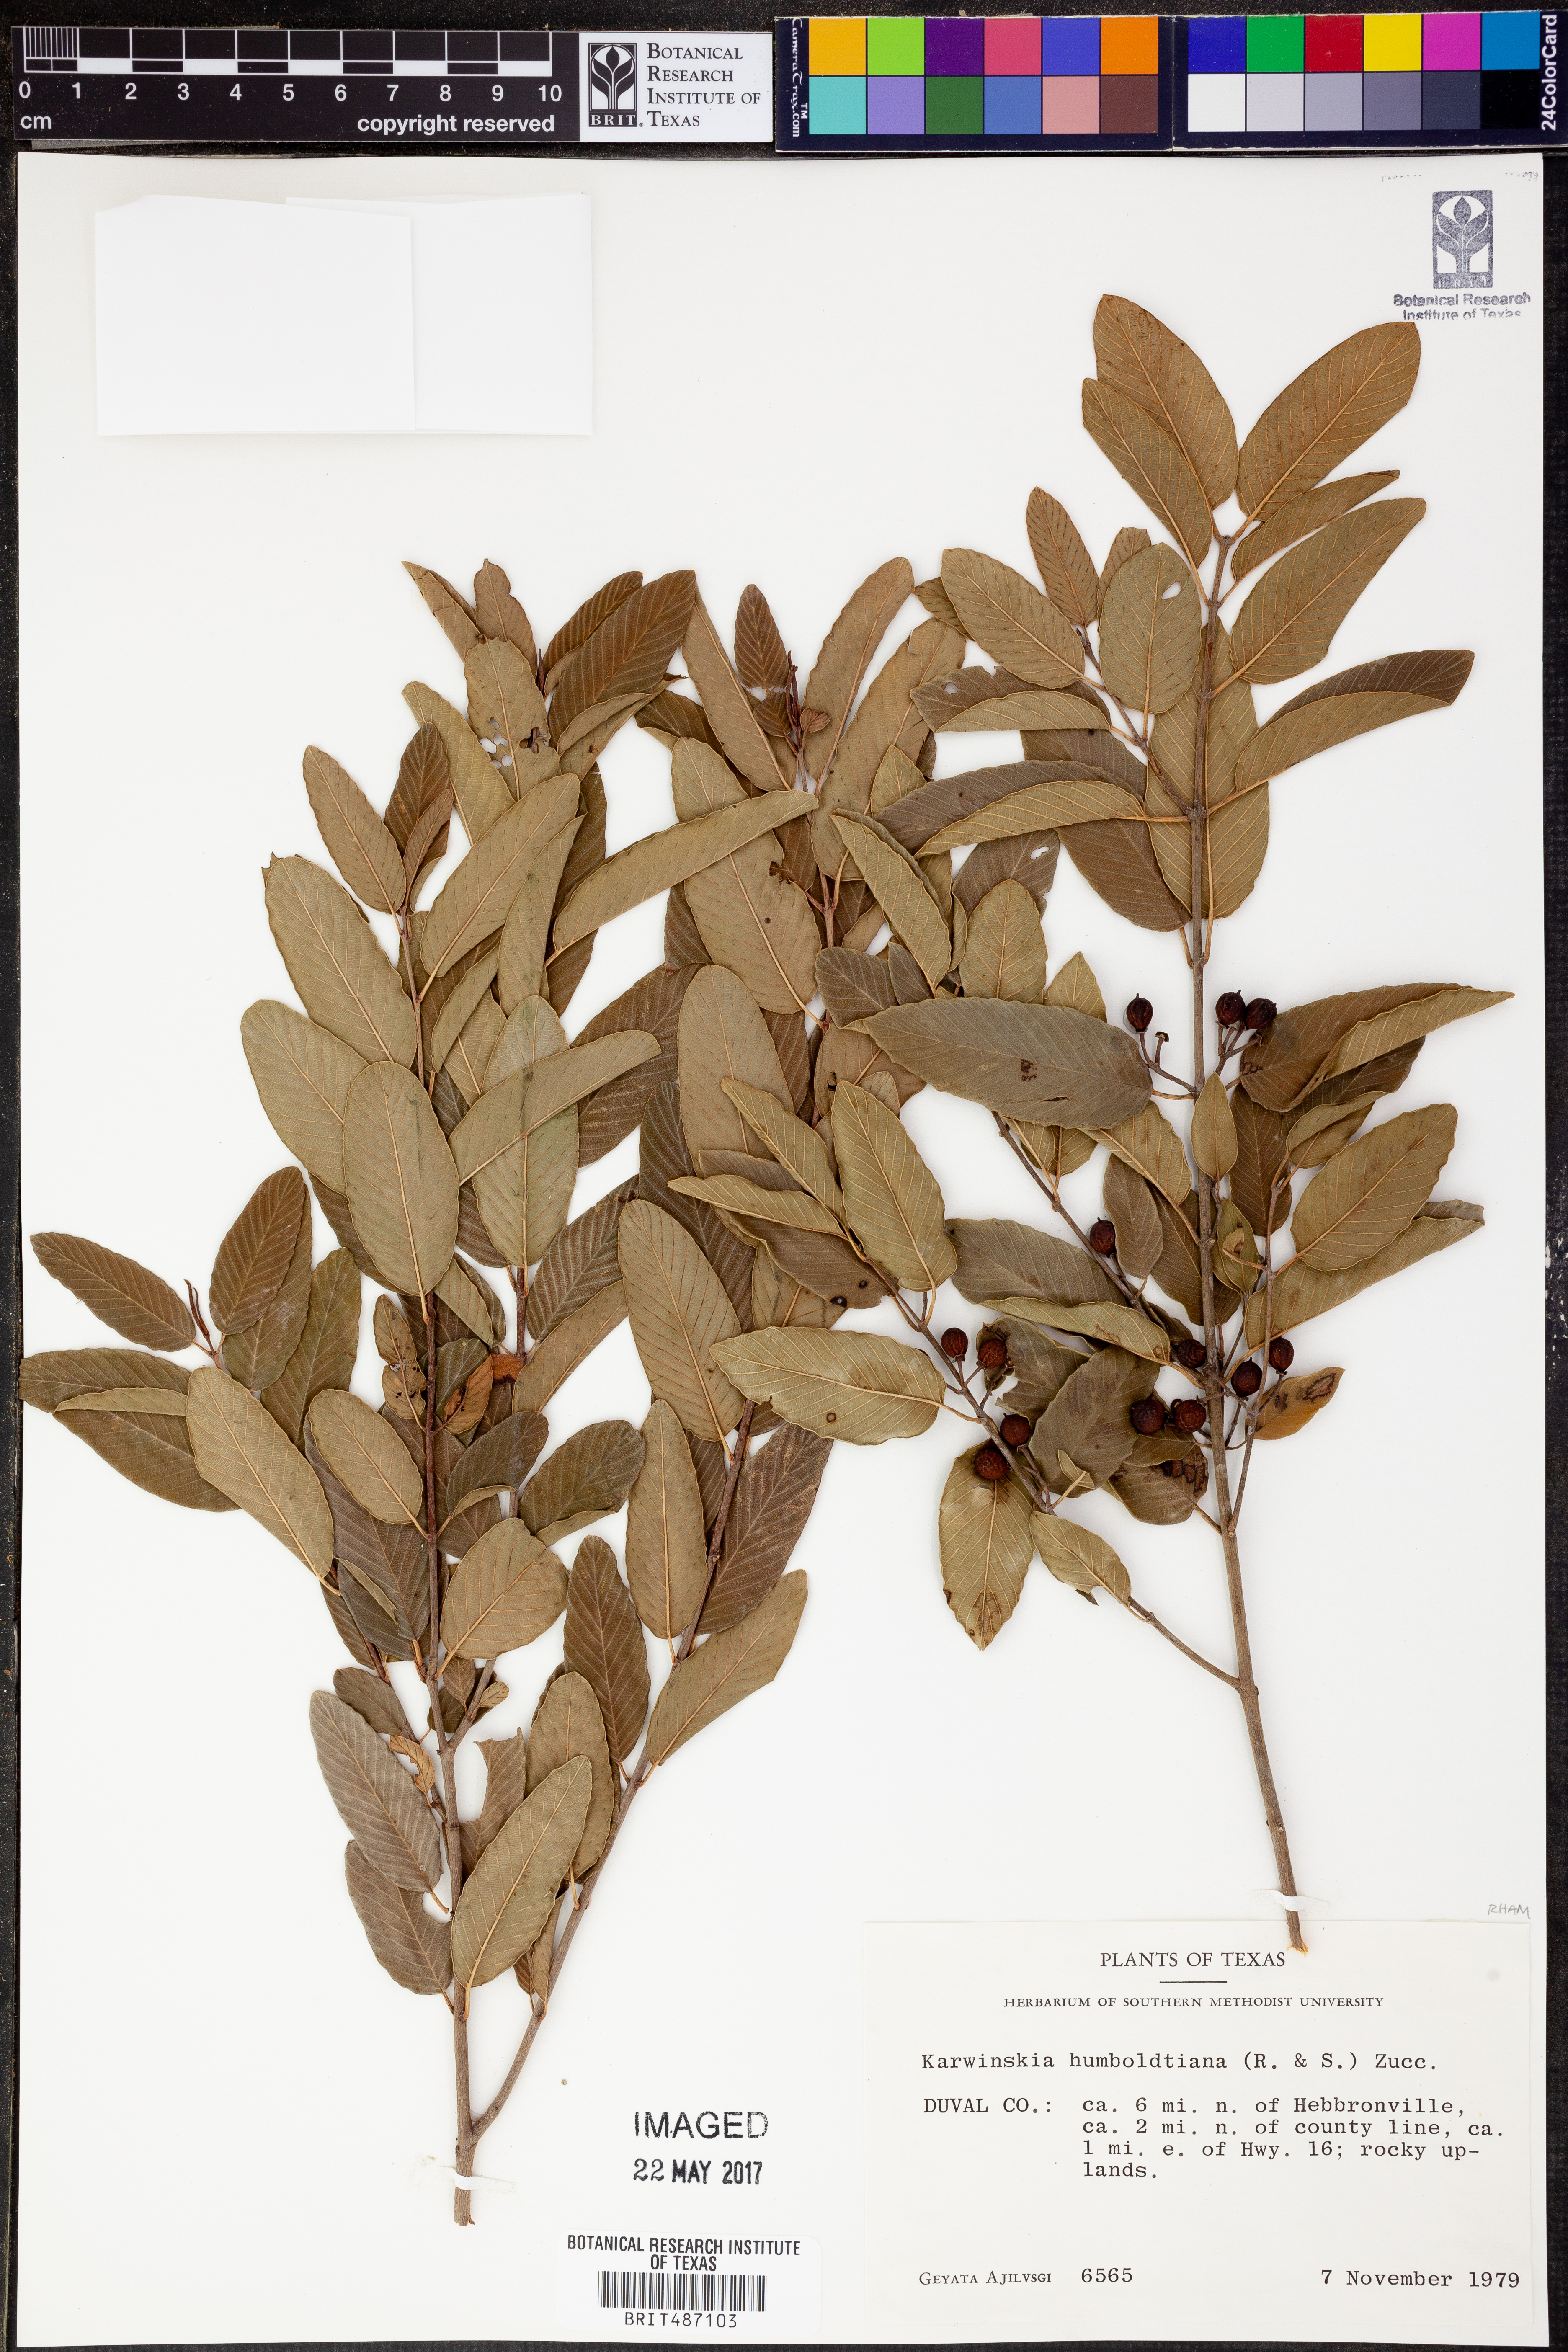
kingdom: Plantae
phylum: Tracheophyta
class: Magnoliopsida
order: Rosales
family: Rhamnaceae
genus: Karwinskia
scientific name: Karwinskia humboldtiana
